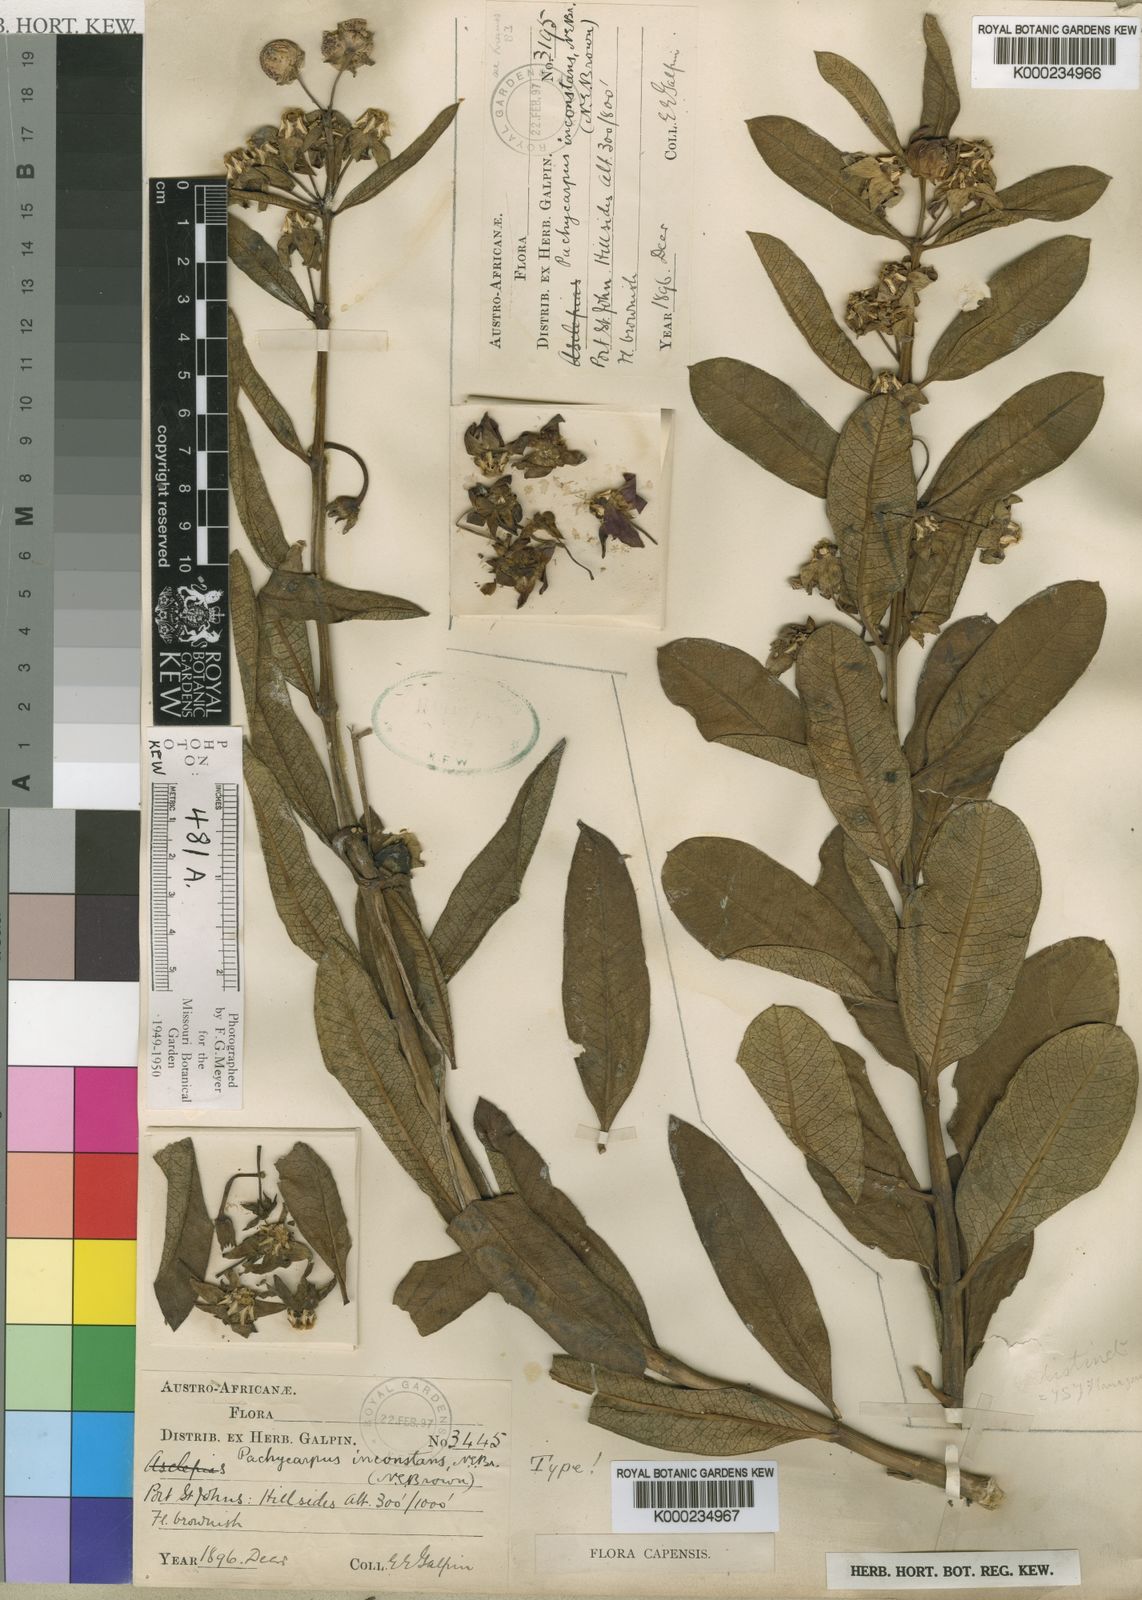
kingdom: Plantae
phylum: Tracheophyta
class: Magnoliopsida
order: Gentianales
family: Apocynaceae
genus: Pachycarpus
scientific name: Pachycarpus asperifolius
